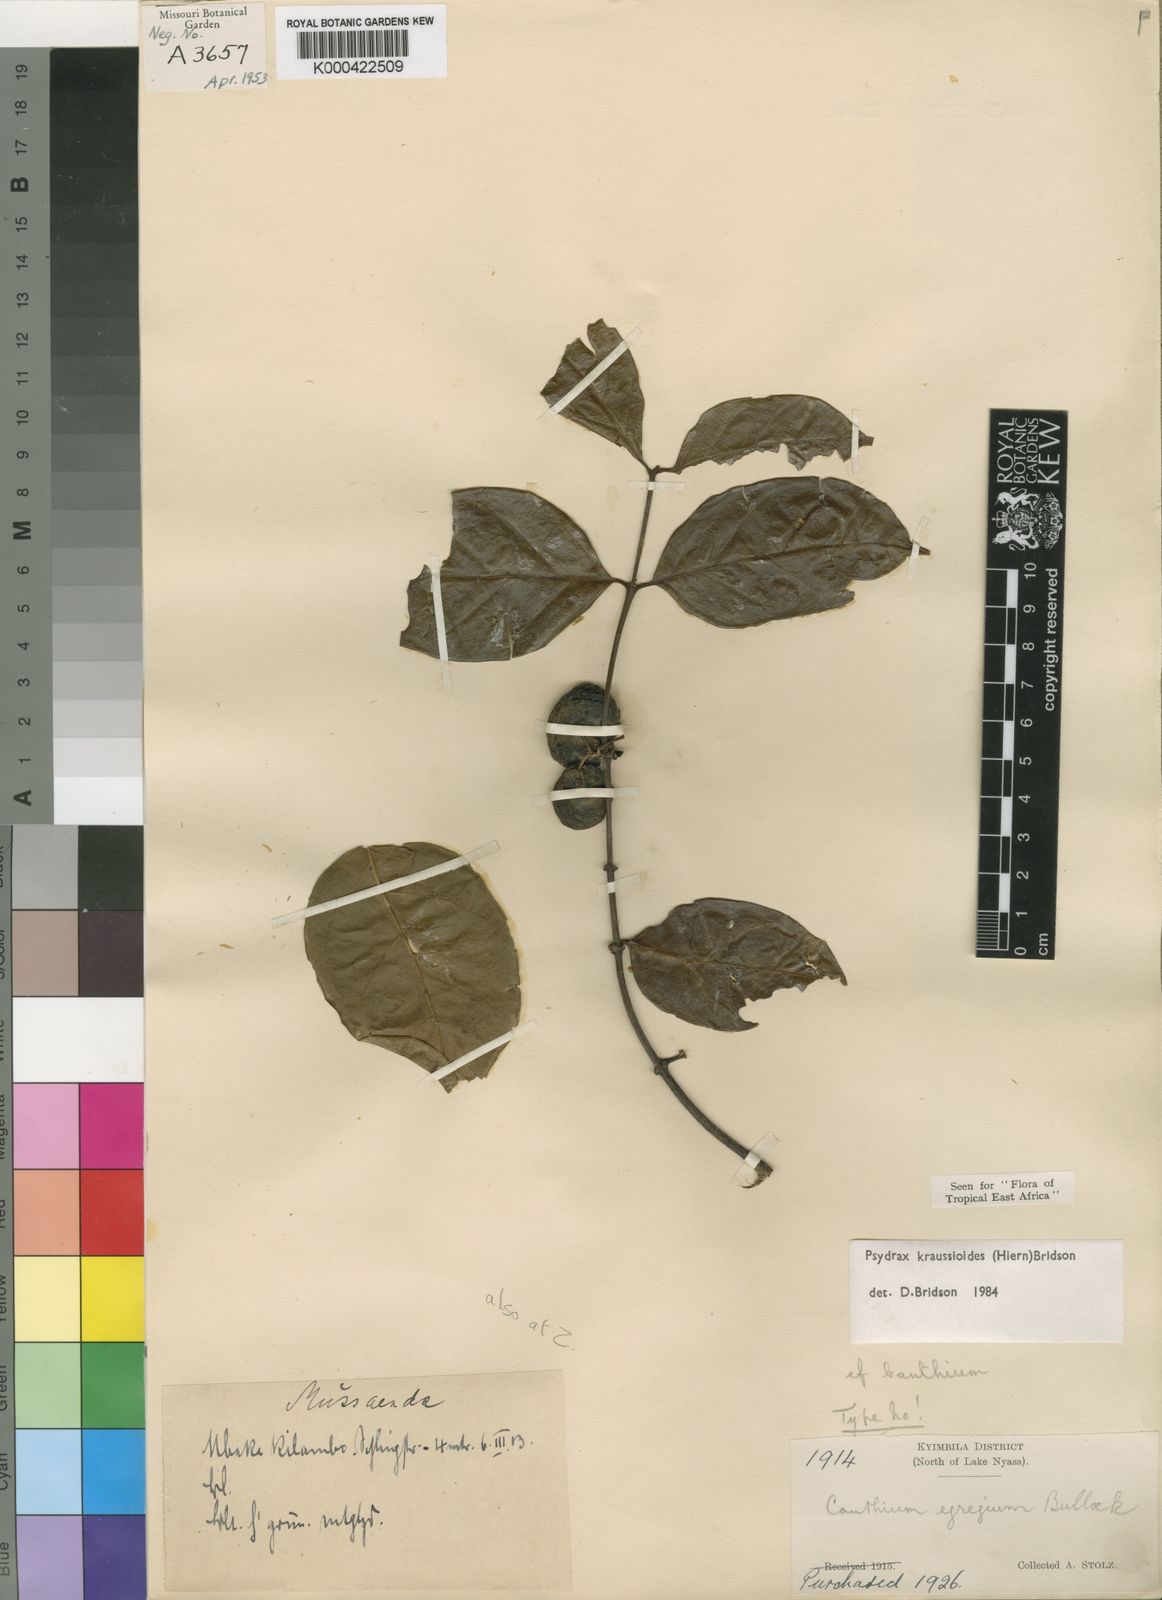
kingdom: Plantae
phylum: Tracheophyta
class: Magnoliopsida
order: Gentianales
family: Rubiaceae
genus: Psydrax
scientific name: Psydrax kraussioides
